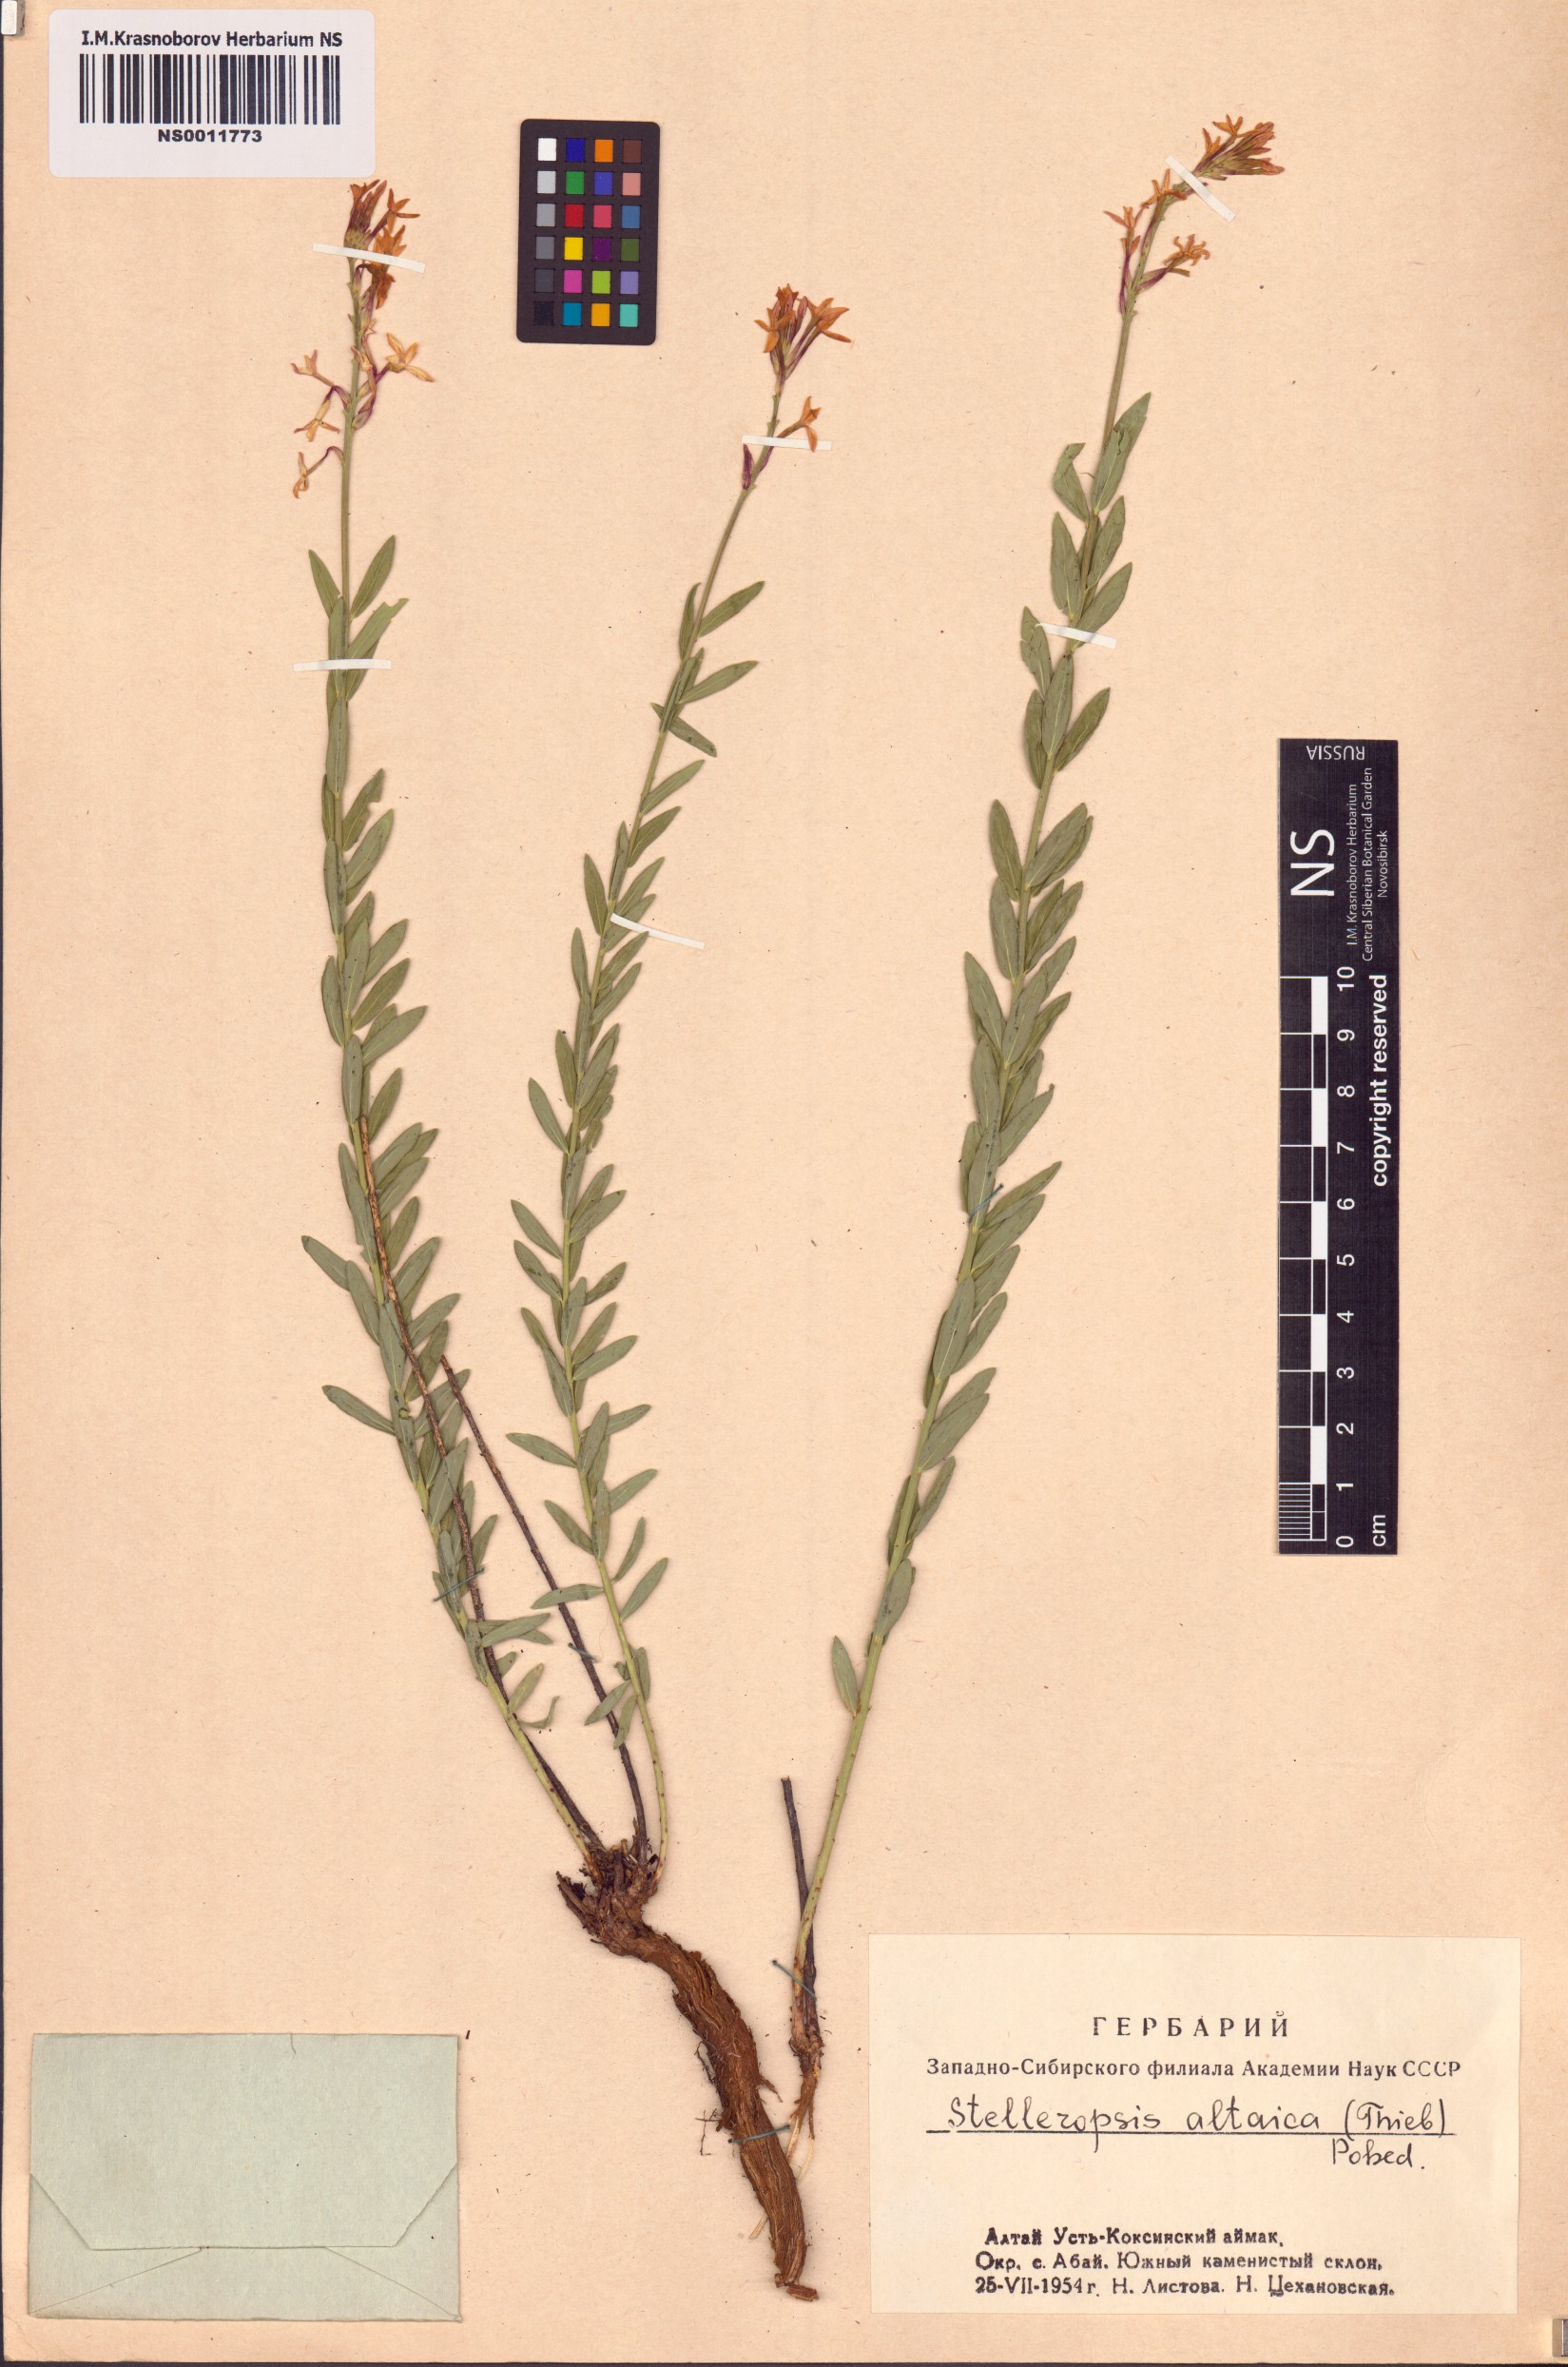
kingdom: Plantae
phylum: Tracheophyta
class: Magnoliopsida
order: Malvales
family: Thymelaeaceae
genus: Diarthron
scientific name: Diarthron altaicum
